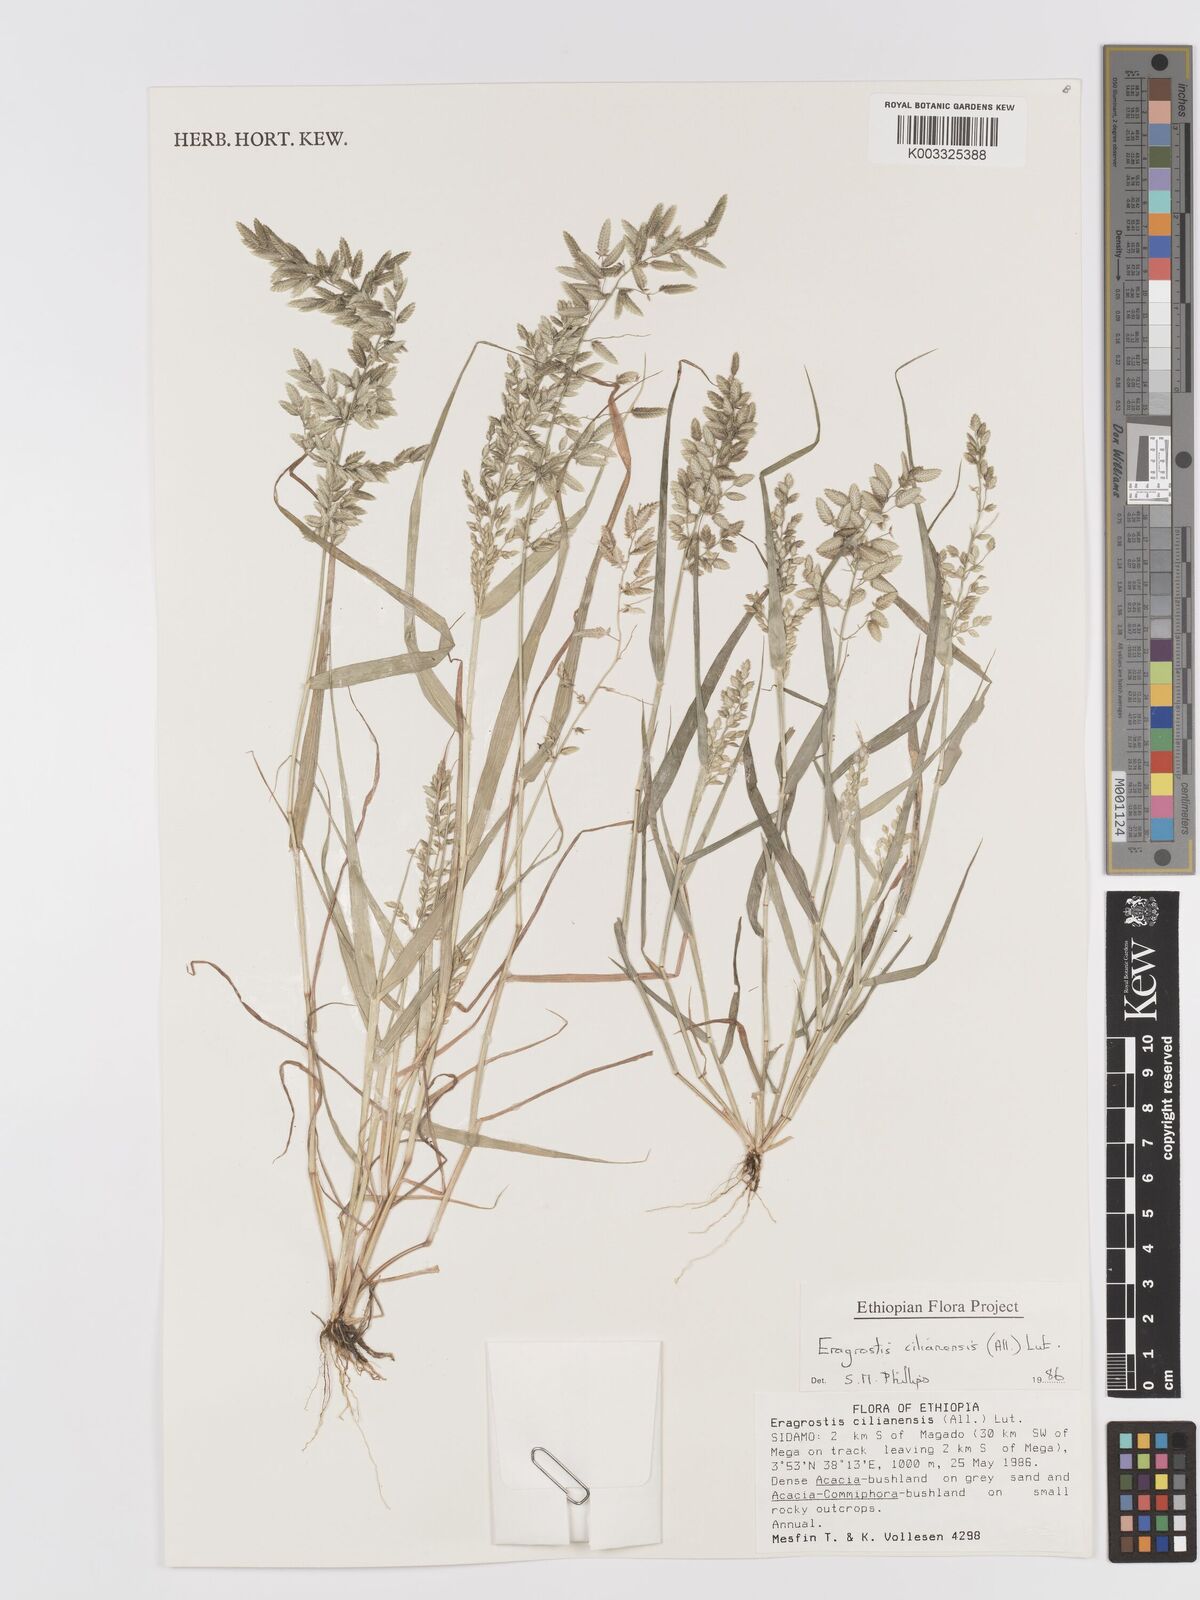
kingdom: Plantae
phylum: Tracheophyta
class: Liliopsida
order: Poales
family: Poaceae
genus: Eragrostis
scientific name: Eragrostis cilianensis
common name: Stinkgrass
